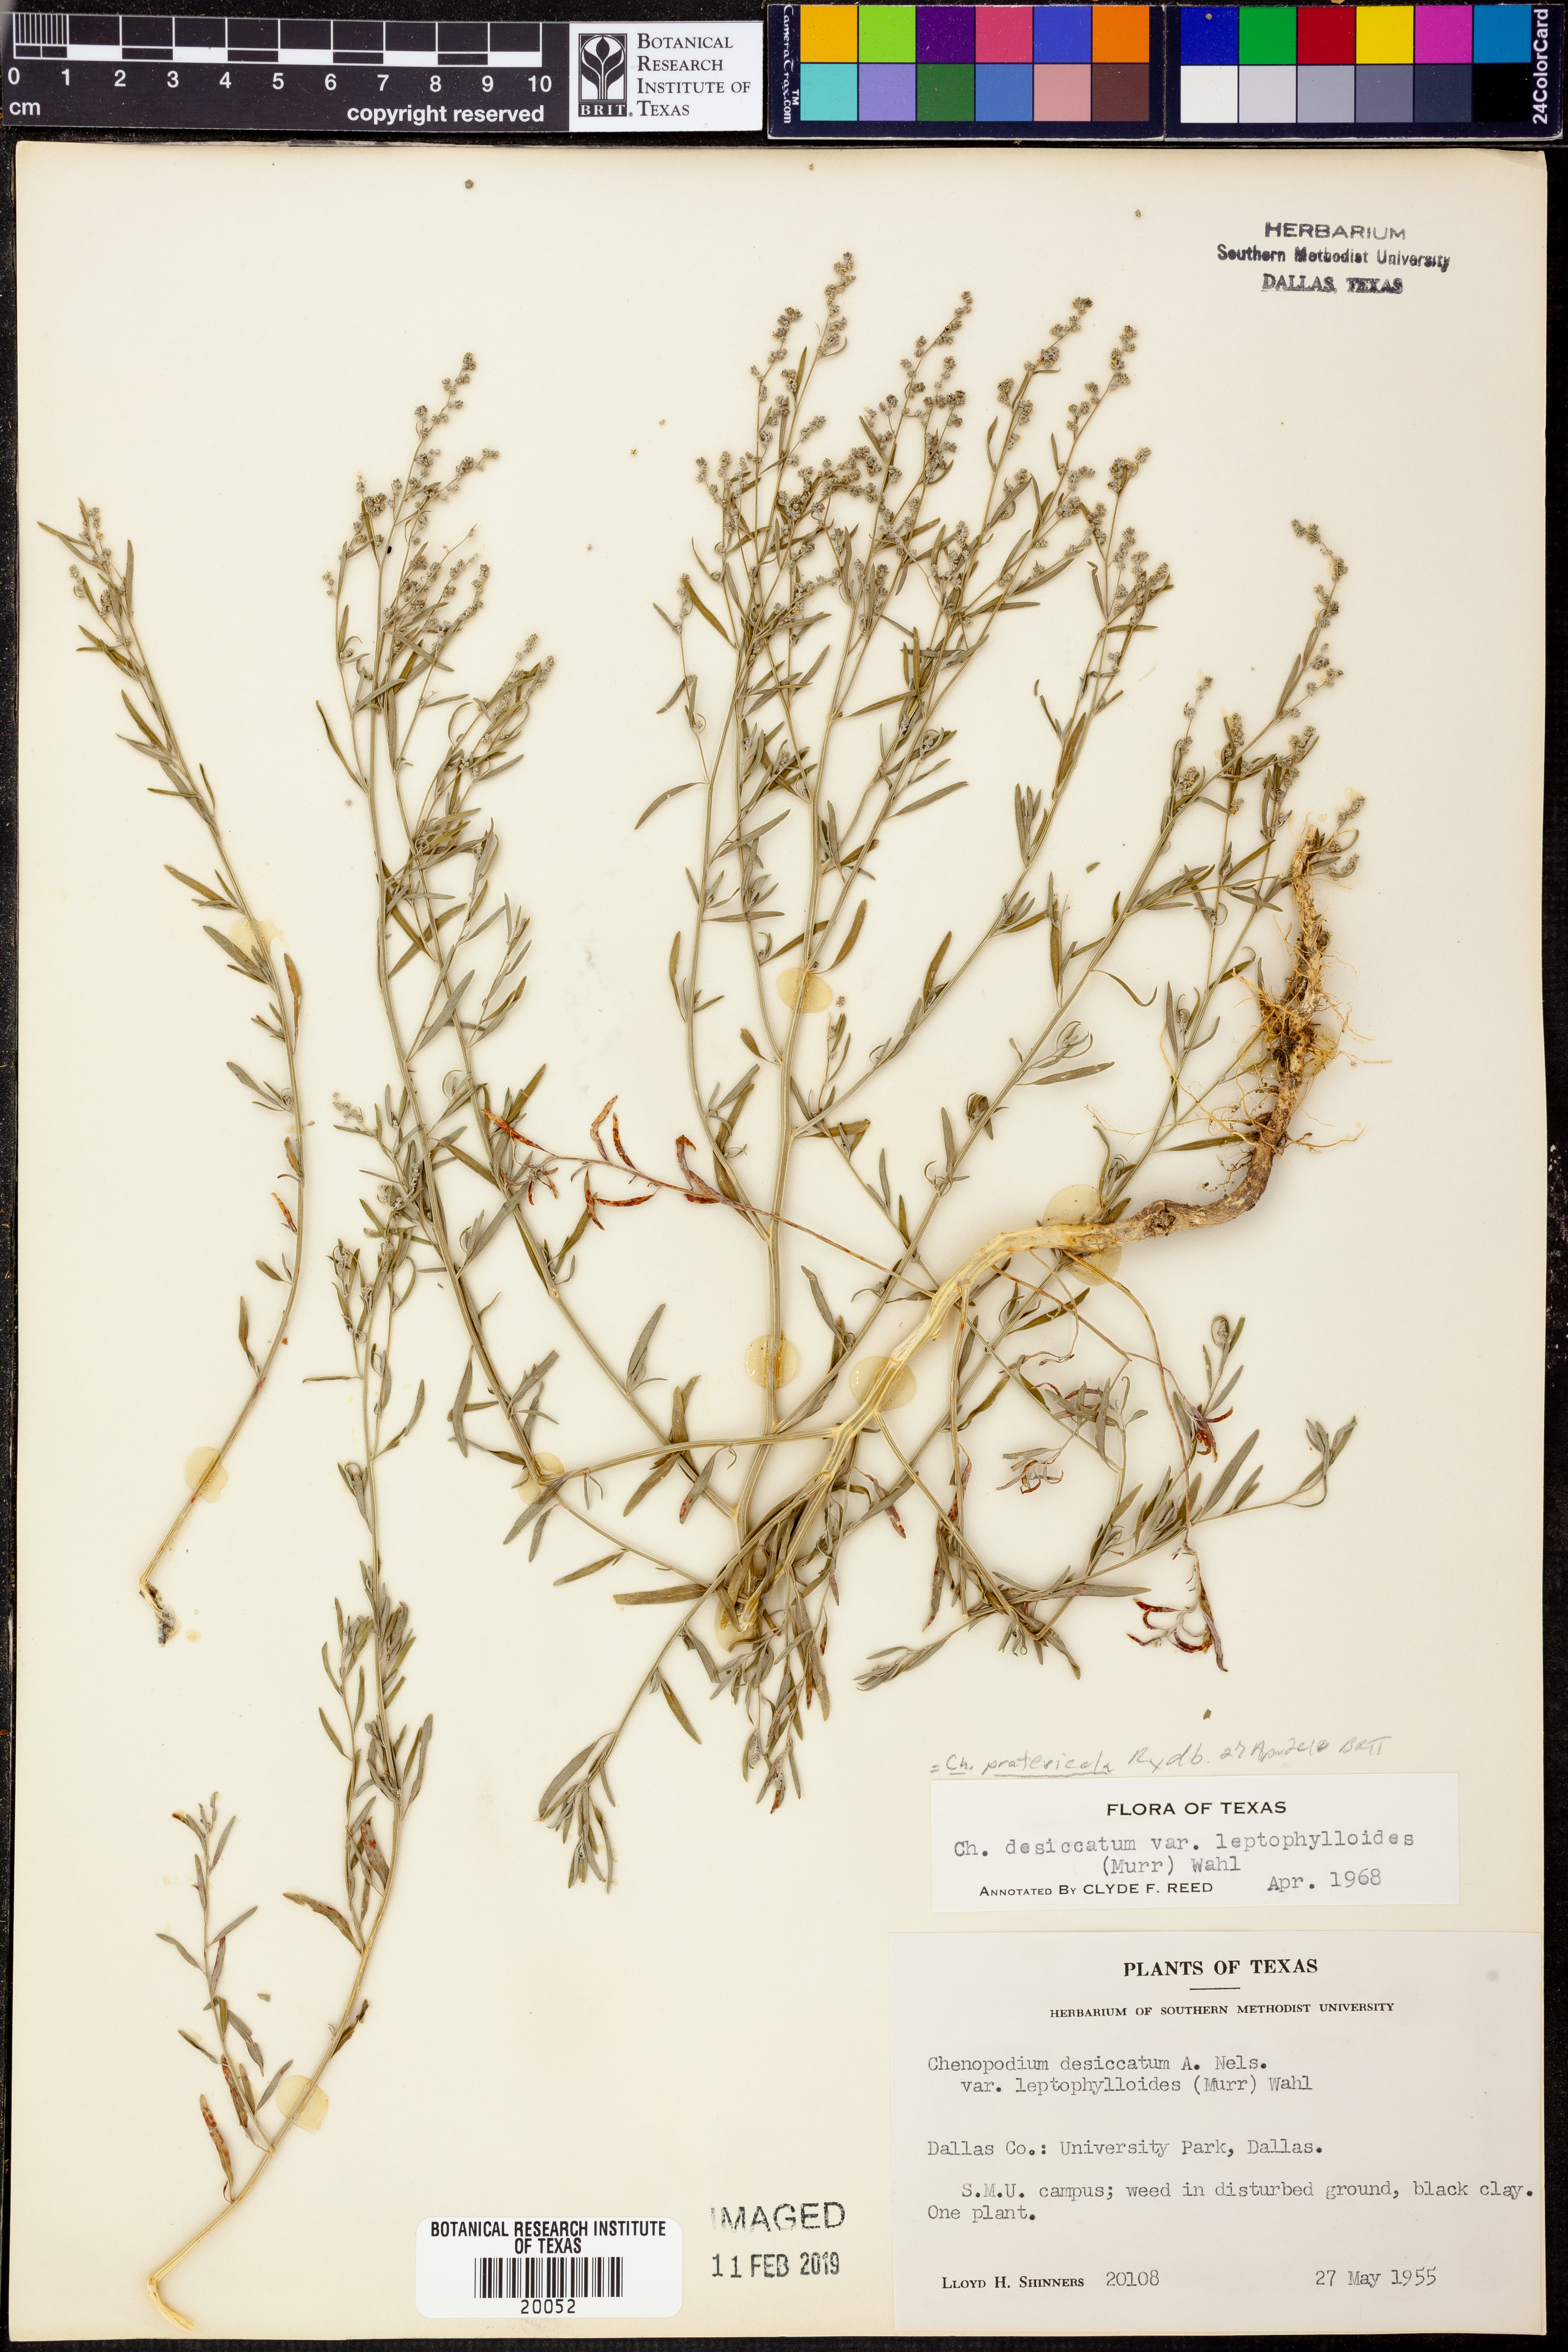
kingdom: Plantae
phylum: Tracheophyta
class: Magnoliopsida
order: Caryophyllales
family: Amaranthaceae
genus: Chenopodium
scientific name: Chenopodium pratericola
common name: Desert goosefoot
